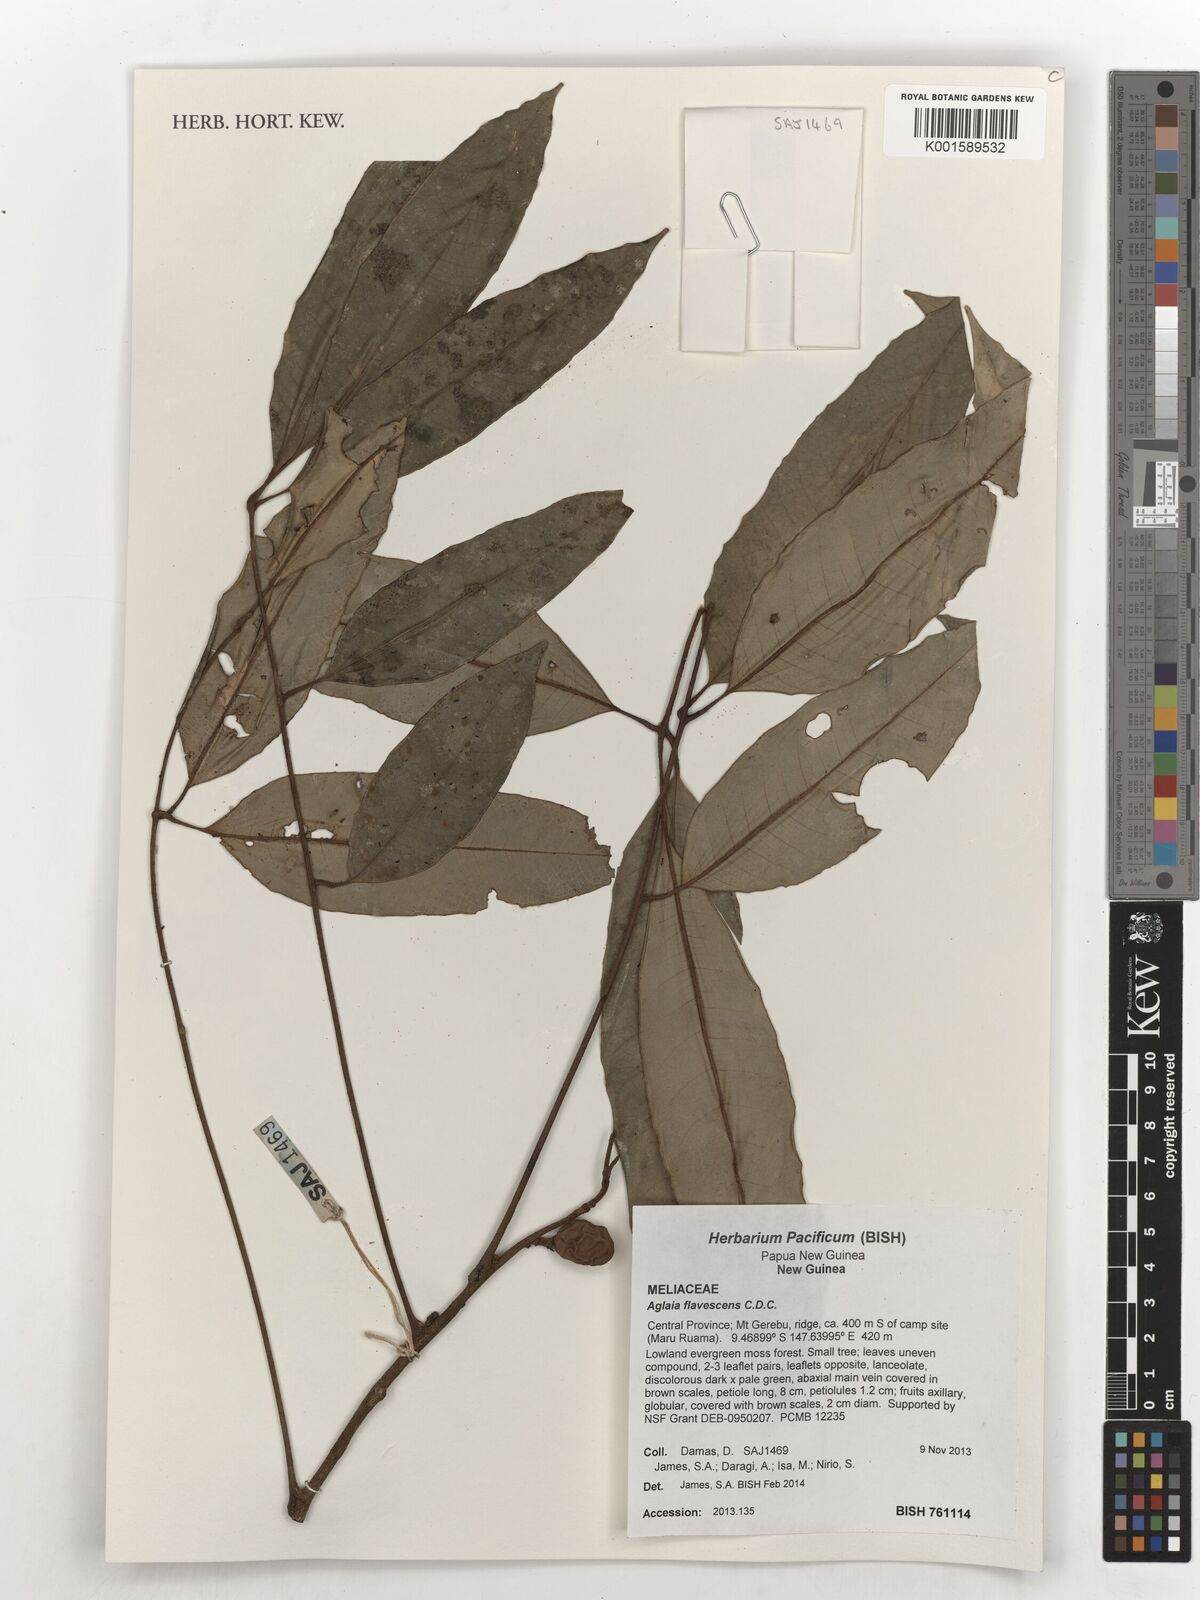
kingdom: Plantae
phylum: Tracheophyta
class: Magnoliopsida
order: Sapindales
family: Meliaceae
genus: Aglaia
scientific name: Aglaia flavescens
